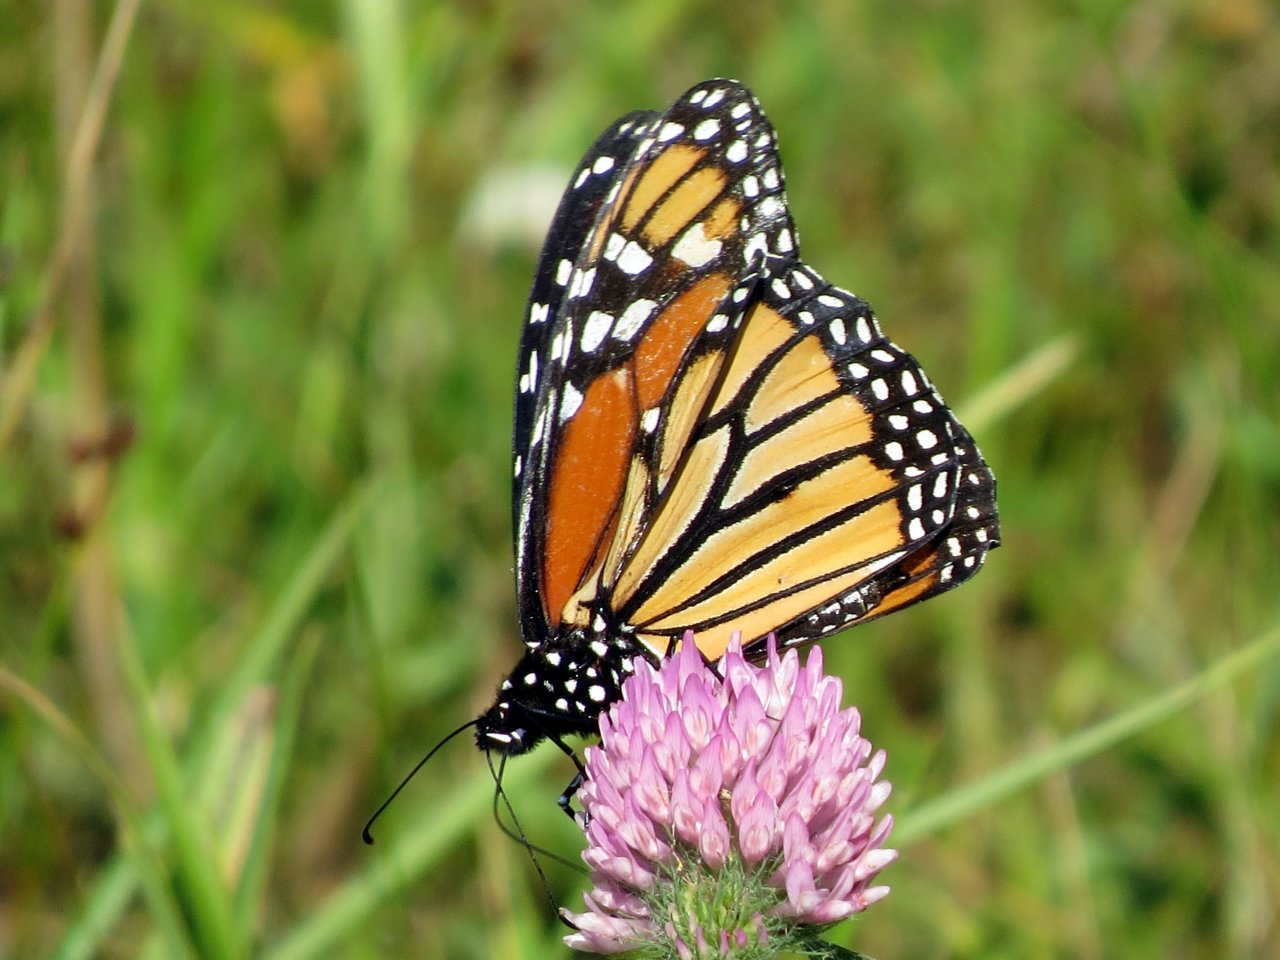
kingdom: Animalia
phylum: Arthropoda
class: Insecta
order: Lepidoptera
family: Nymphalidae
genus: Danaus
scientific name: Danaus plexippus
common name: Monarch
